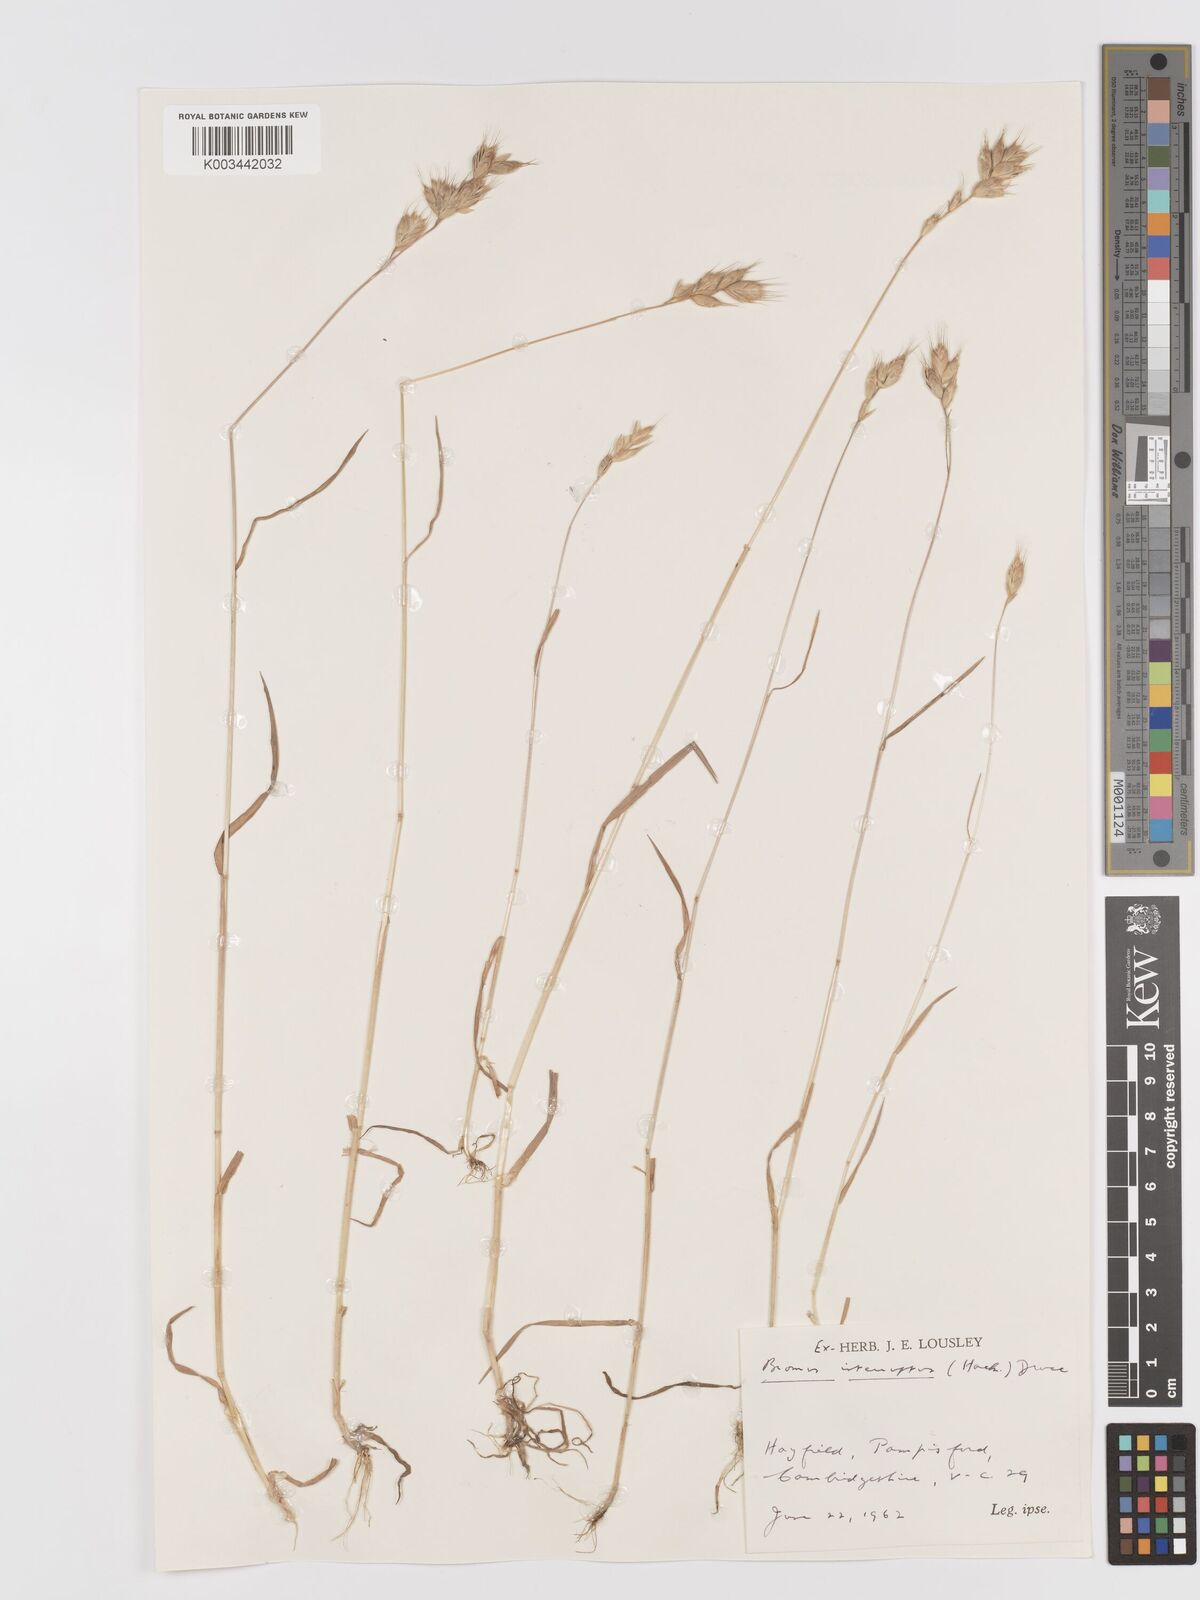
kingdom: Plantae
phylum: Tracheophyta
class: Liliopsida
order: Poales
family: Poaceae
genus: Bromus
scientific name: Bromus interruptus
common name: Interrupted brome
